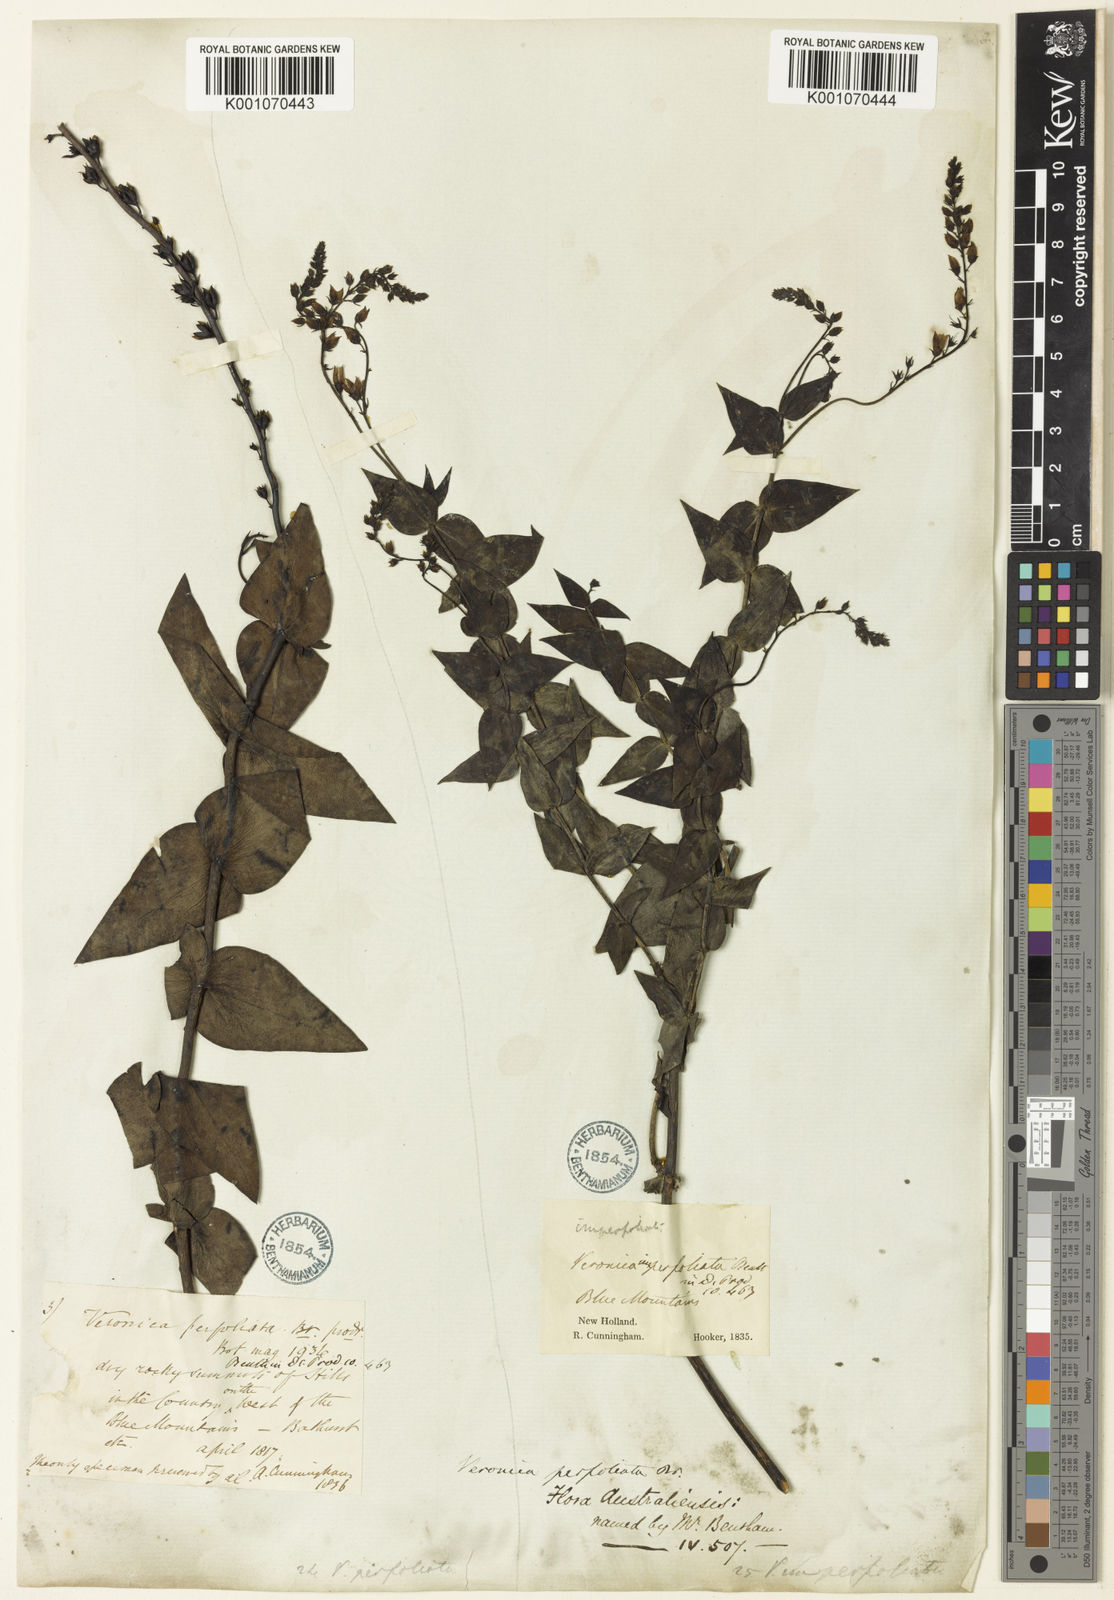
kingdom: Plantae
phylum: Tracheophyta
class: Magnoliopsida
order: Lamiales
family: Plantaginaceae
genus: Veronica
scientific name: Veronica
